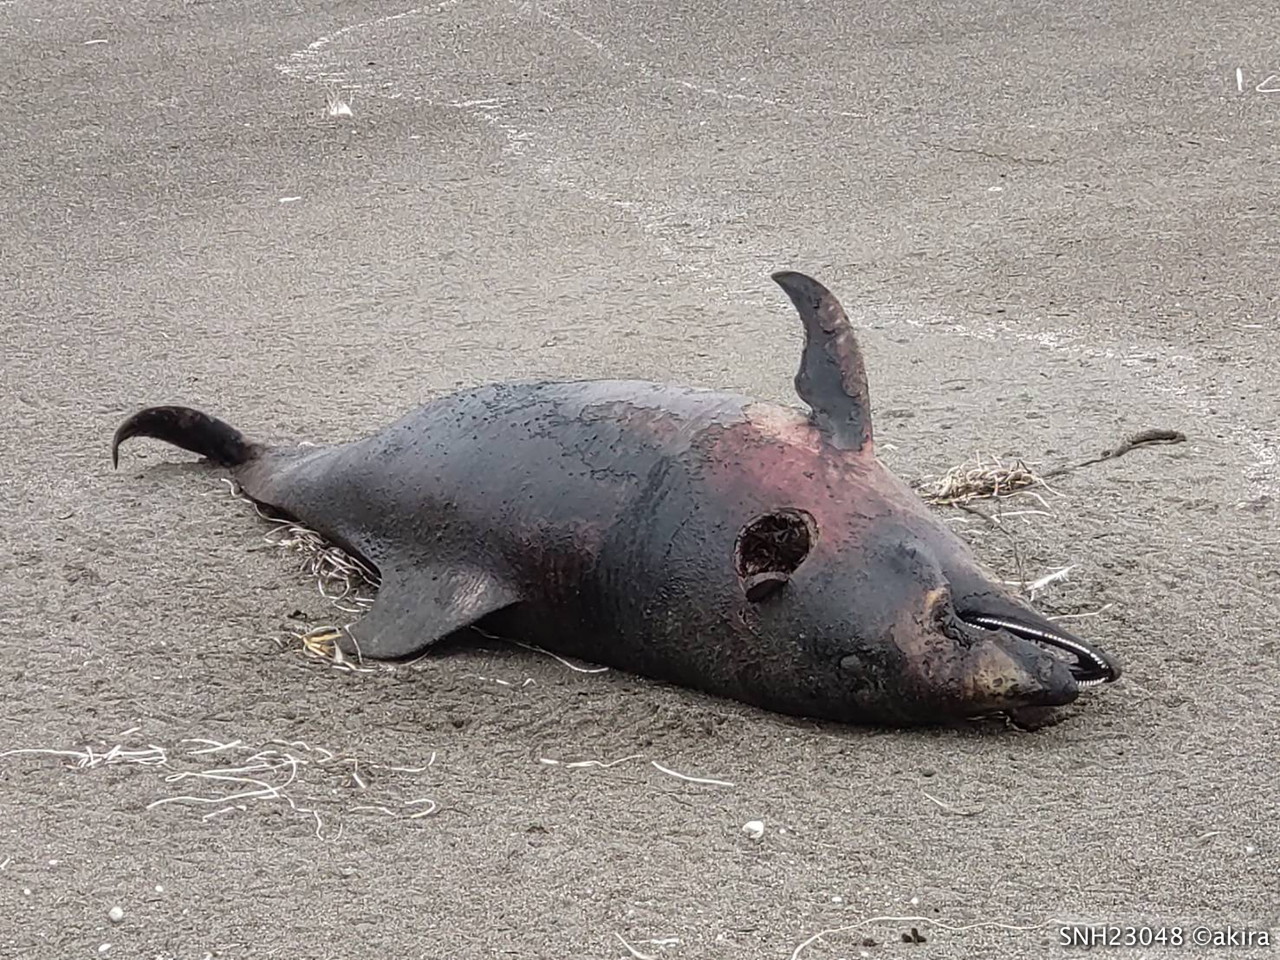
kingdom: Animalia
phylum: Chordata
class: Mammalia
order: Cetacea
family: Delphinidae
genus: Lagenorhynchus
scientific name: Lagenorhynchus obliquidens
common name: Pacific white-sided dolphin
